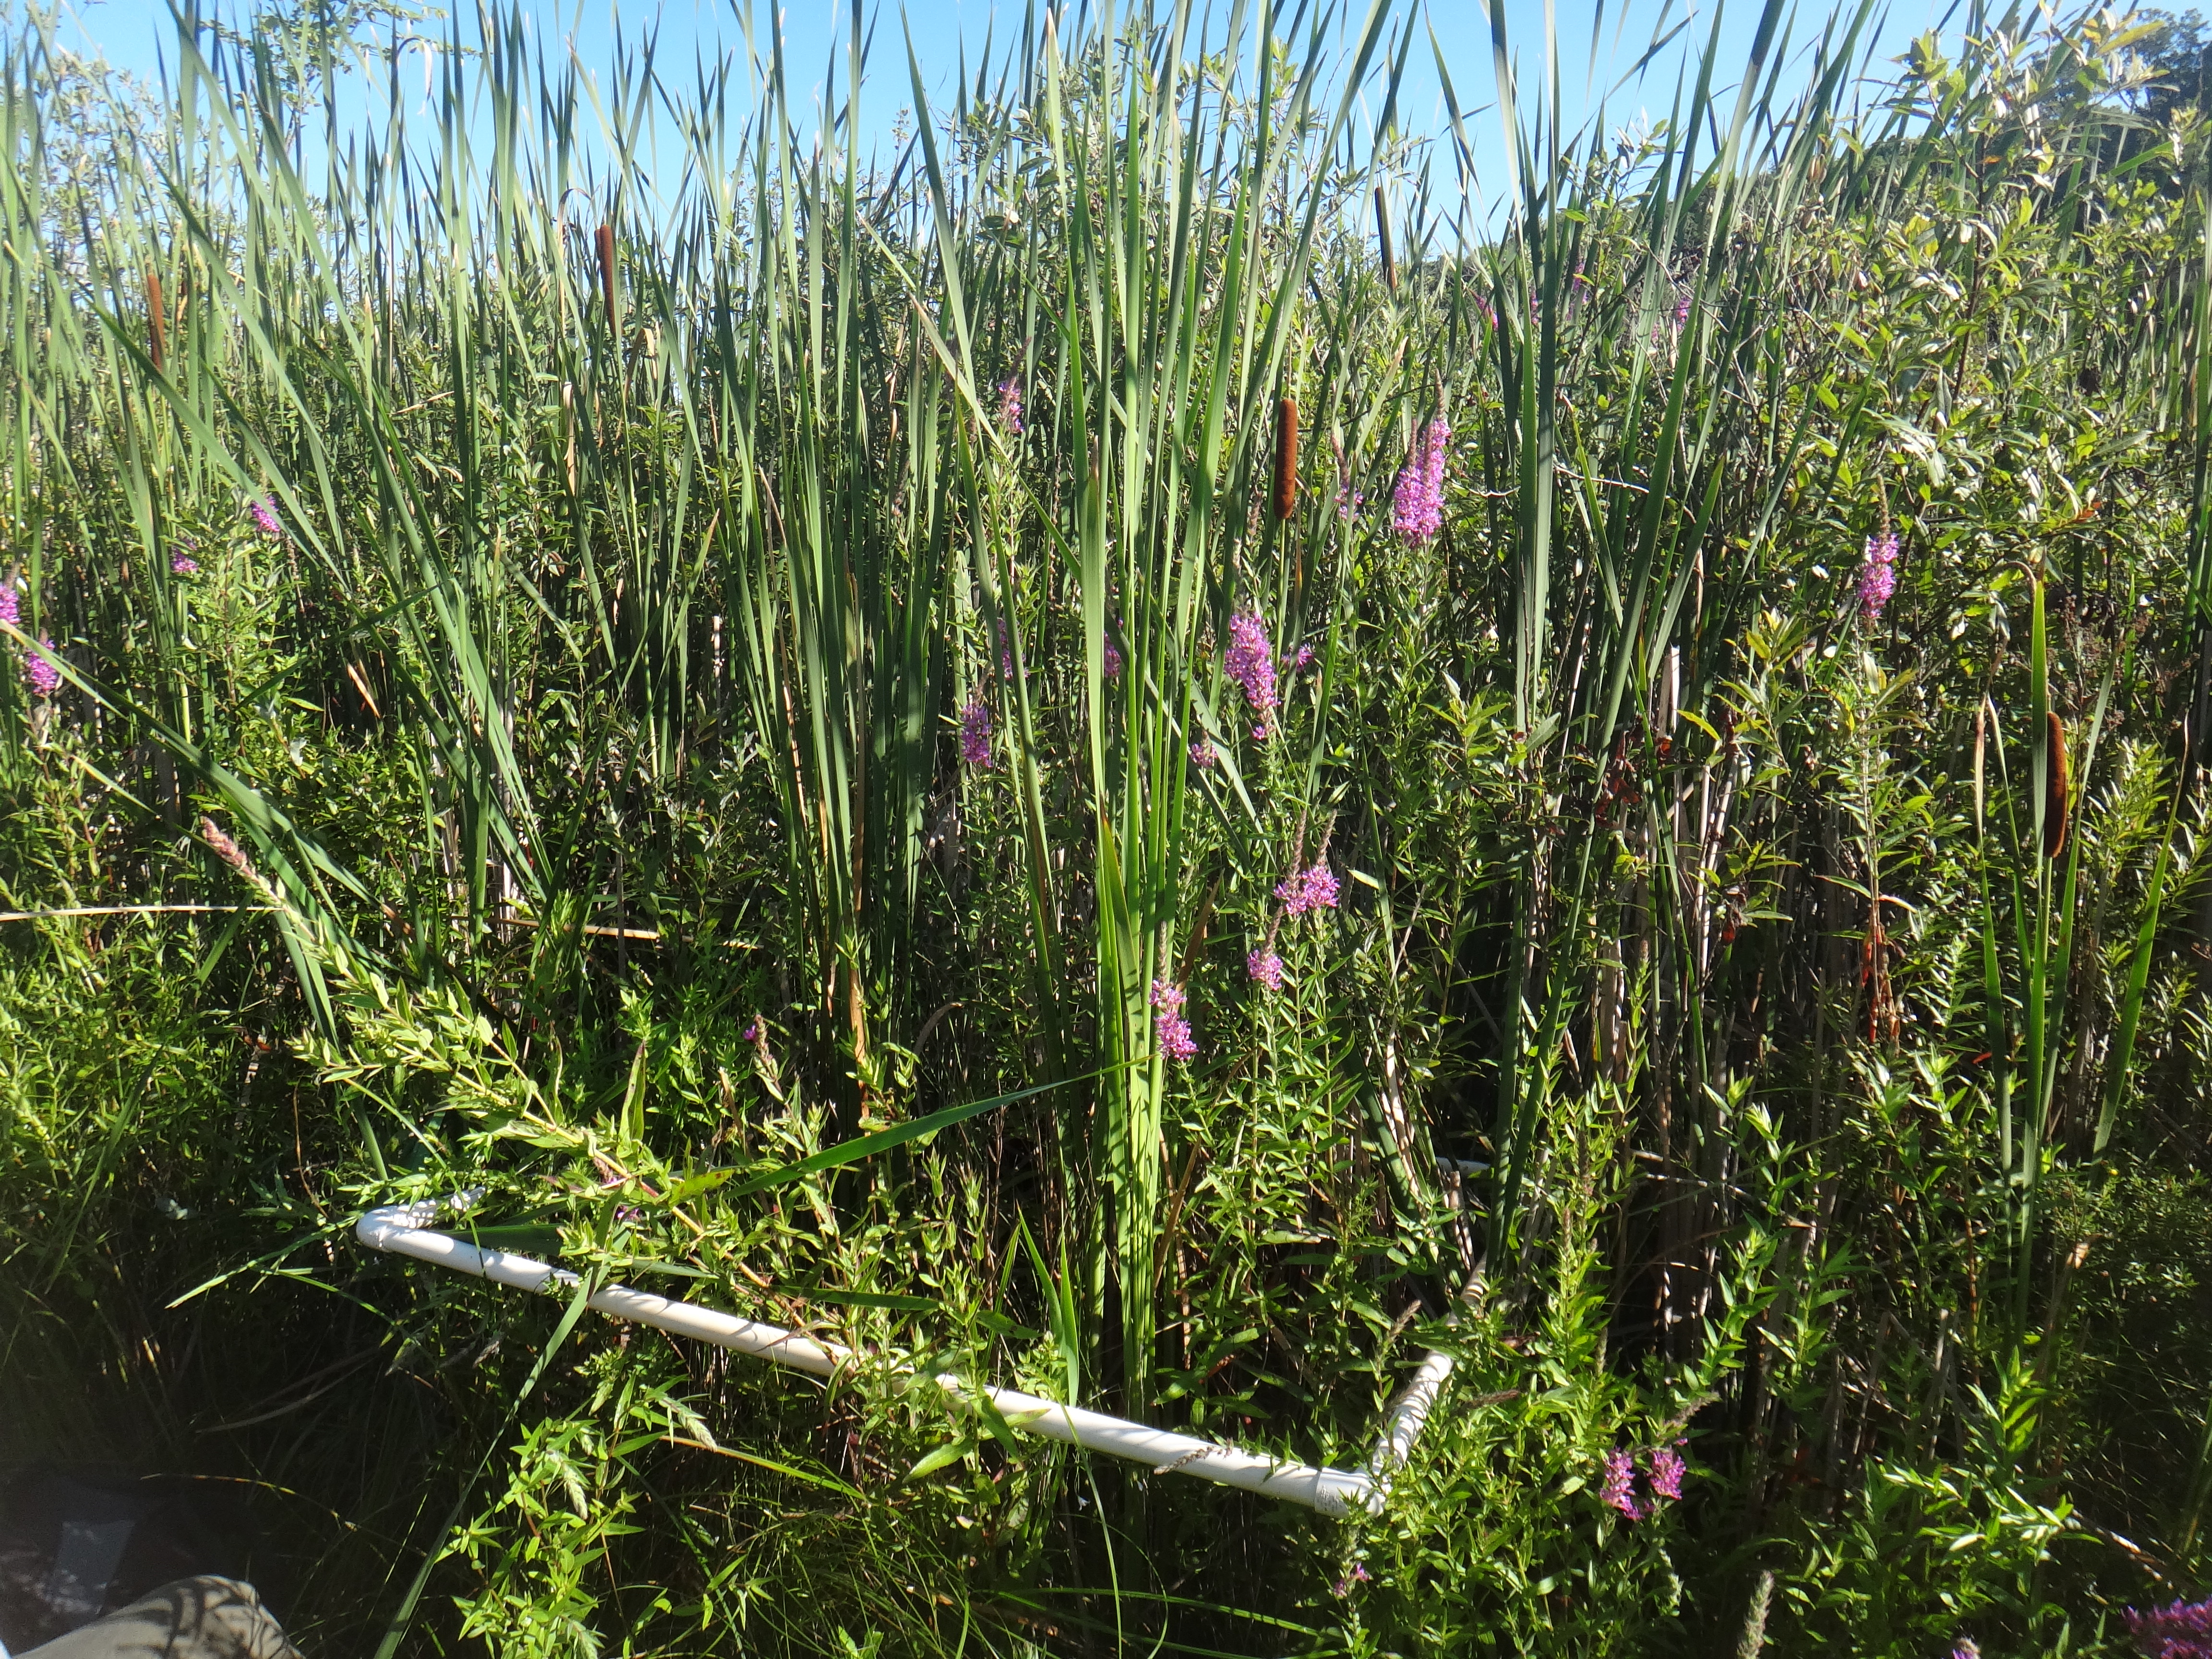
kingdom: Plantae
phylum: Tracheophyta
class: Liliopsida
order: Poales
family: Cyperaceae
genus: Carex
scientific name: Carex stricta
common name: Hummock sedge
